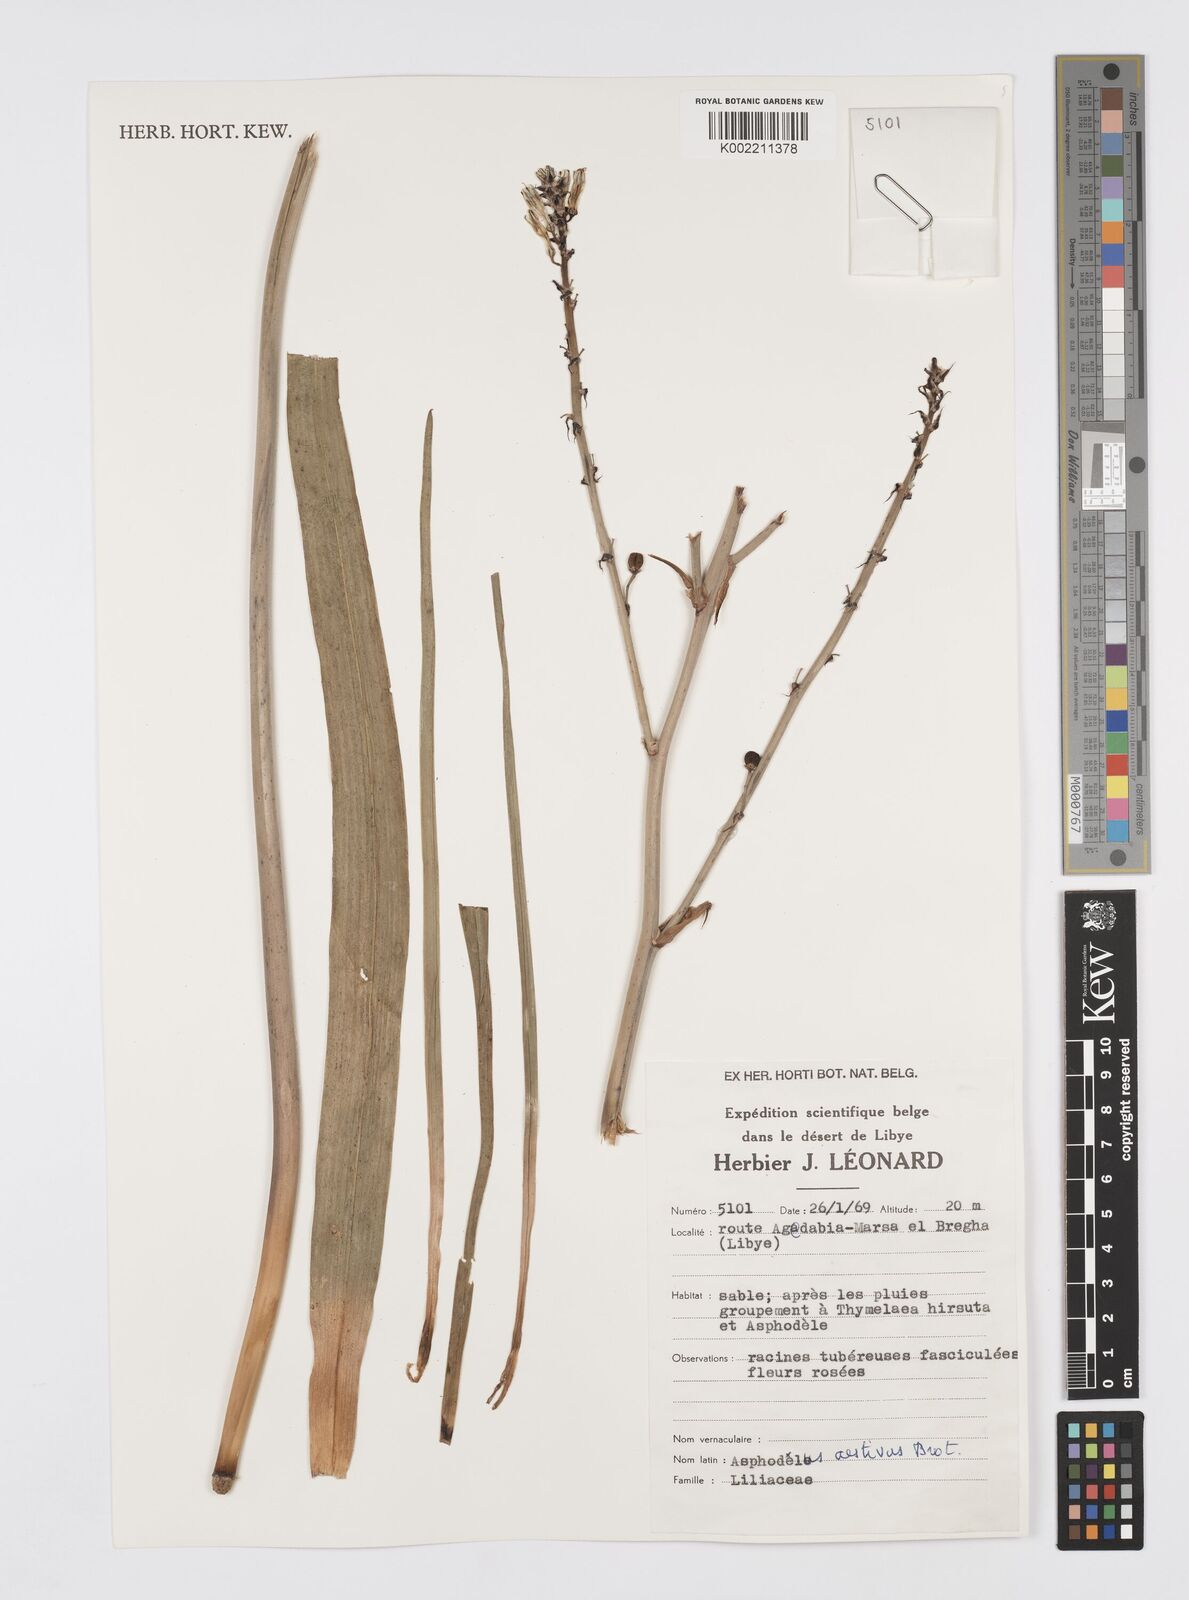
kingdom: Plantae
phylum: Tracheophyta
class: Liliopsida
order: Asparagales
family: Asphodelaceae
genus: Asphodelus
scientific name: Asphodelus ramosus
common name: Silverrod
